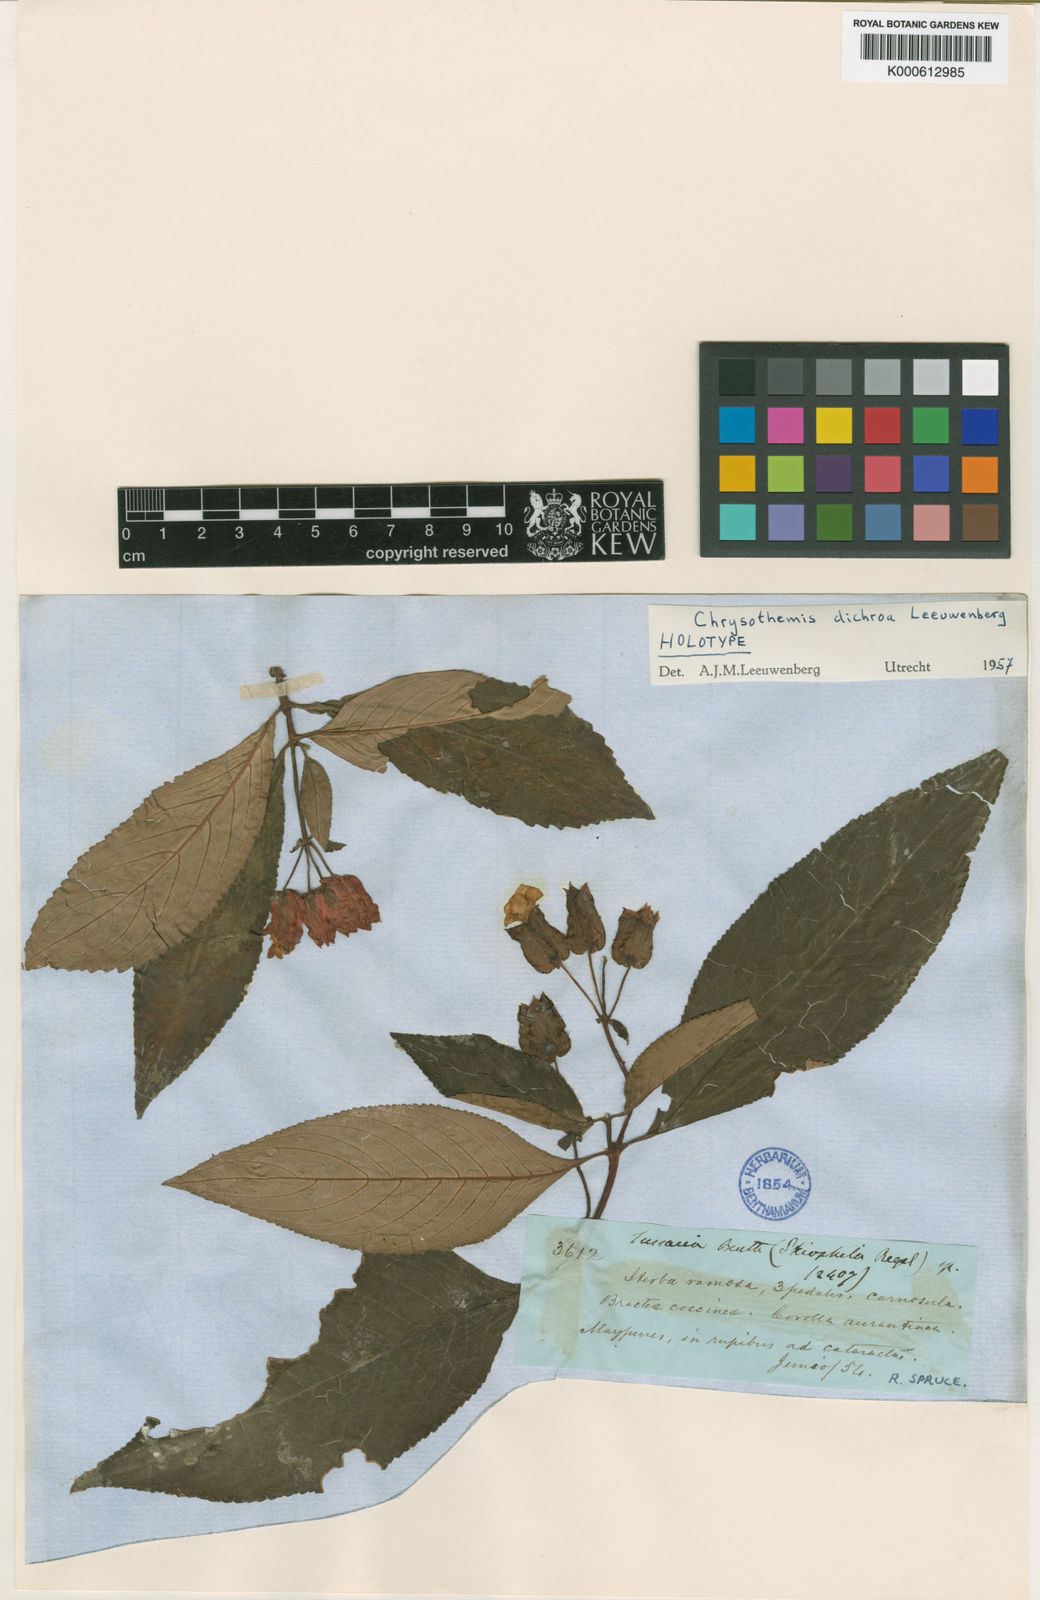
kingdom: Plantae
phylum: Tracheophyta
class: Magnoliopsida
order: Lamiales
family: Gesneriaceae
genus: Chrysothemis
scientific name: Chrysothemis dichroa
